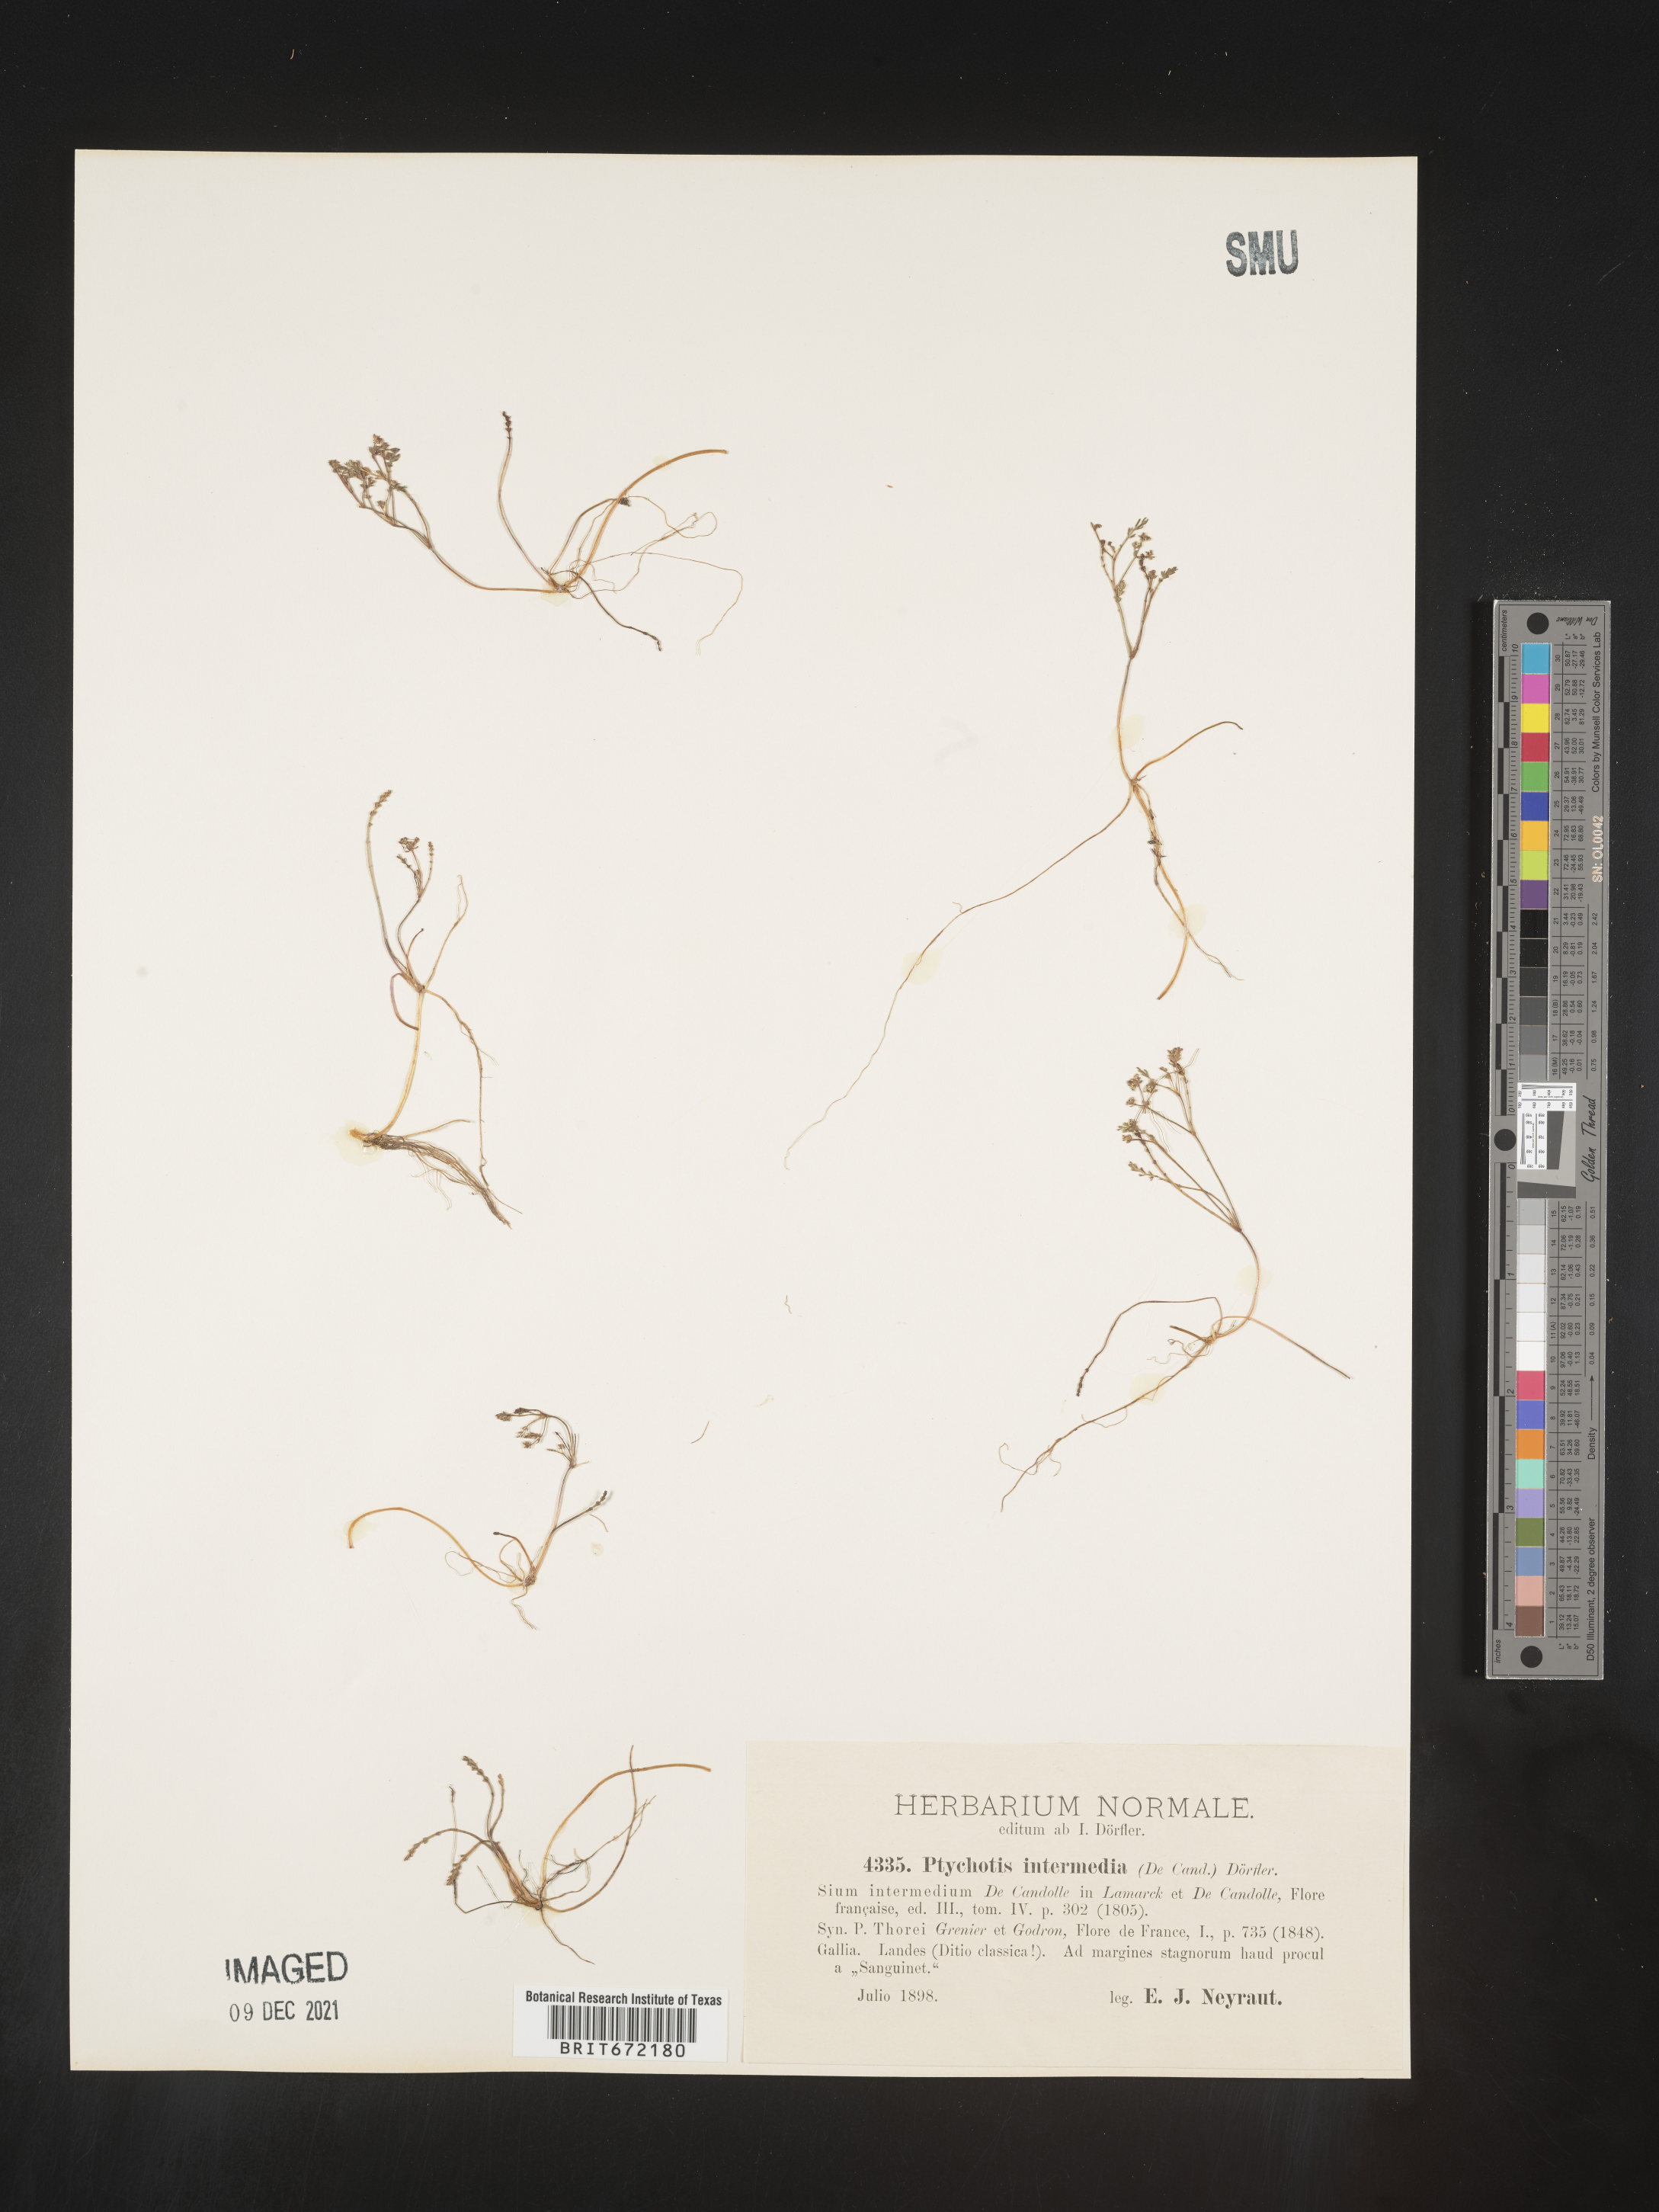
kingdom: Plantae
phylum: Tracheophyta
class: Magnoliopsida
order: Apiales
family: Apiaceae
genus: Ptychotis
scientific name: Ptychotis
